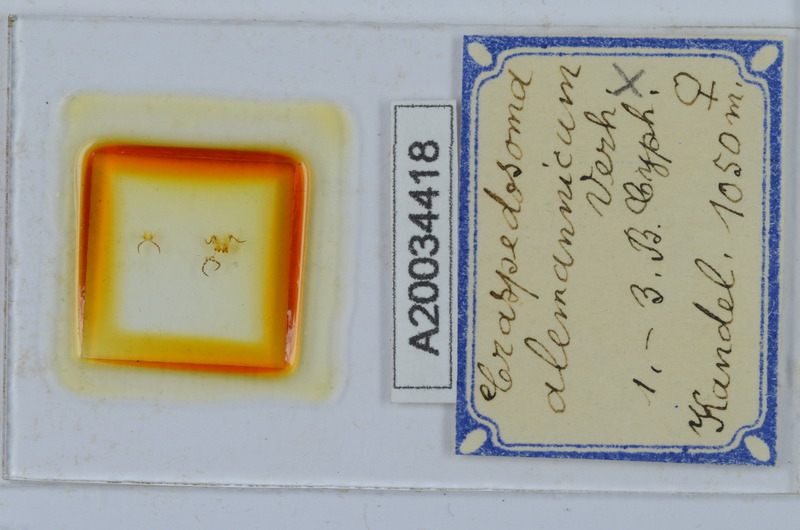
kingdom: Animalia
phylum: Arthropoda
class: Diplopoda
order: Chordeumatida
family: Craspedosomatidae
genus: Craspedosoma
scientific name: Craspedosoma alemannicum
